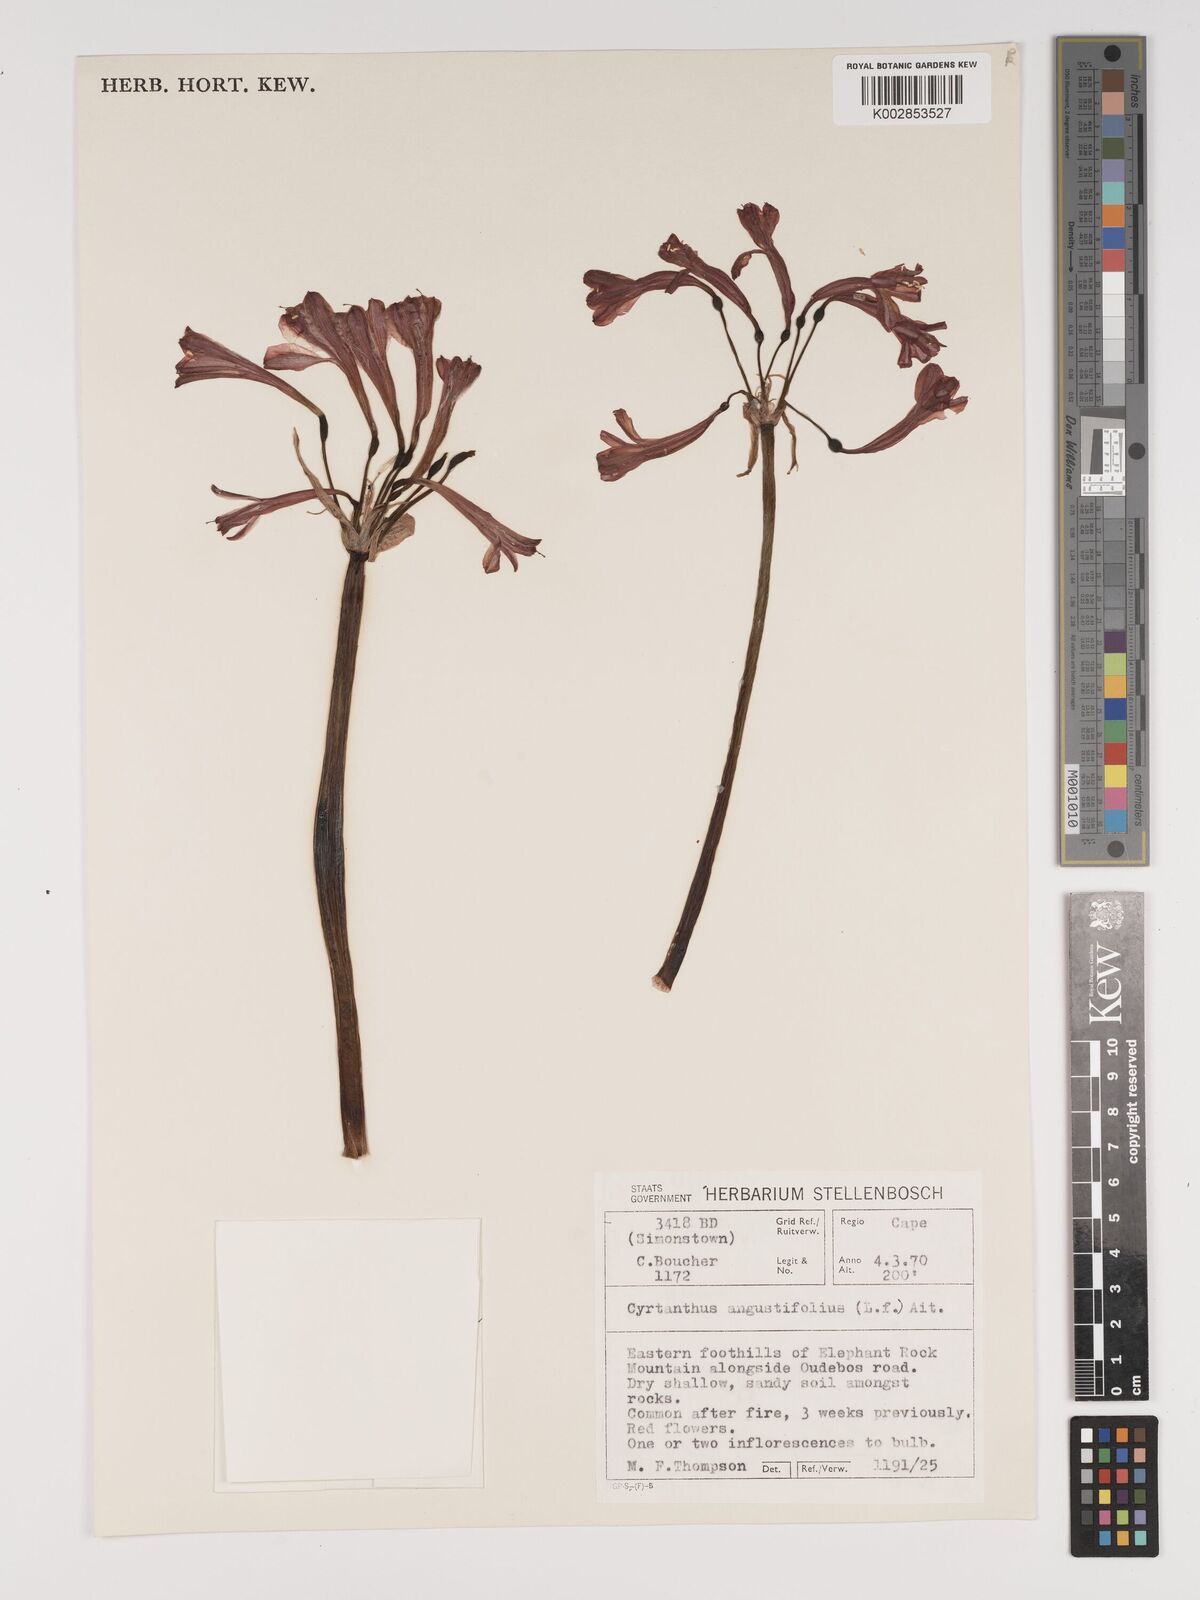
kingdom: Plantae
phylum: Tracheophyta
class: Liliopsida
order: Asparagales
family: Amaryllidaceae
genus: Cyrtanthus
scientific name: Cyrtanthus angustifolius
